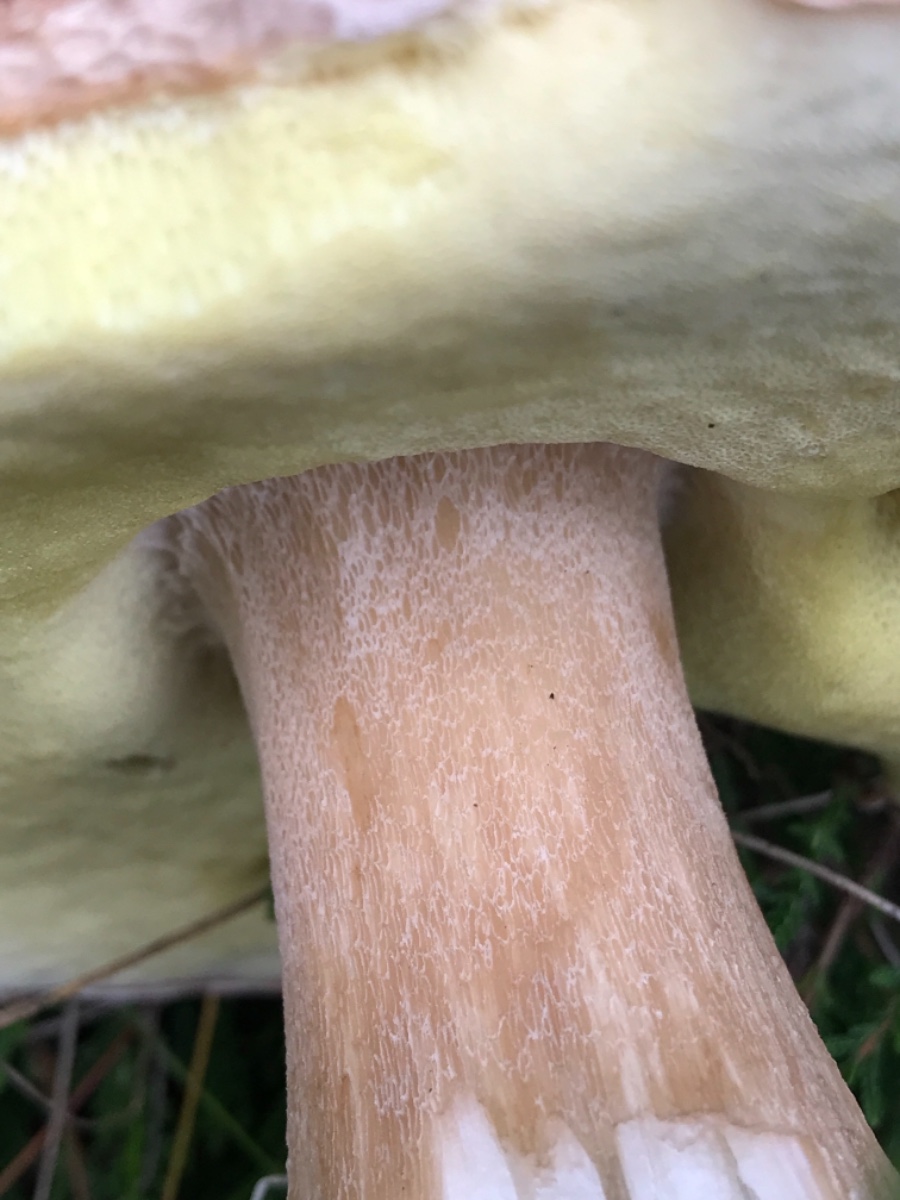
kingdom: Fungi
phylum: Basidiomycota
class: Agaricomycetes
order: Boletales
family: Boletaceae
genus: Boletus
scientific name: Boletus edulis
